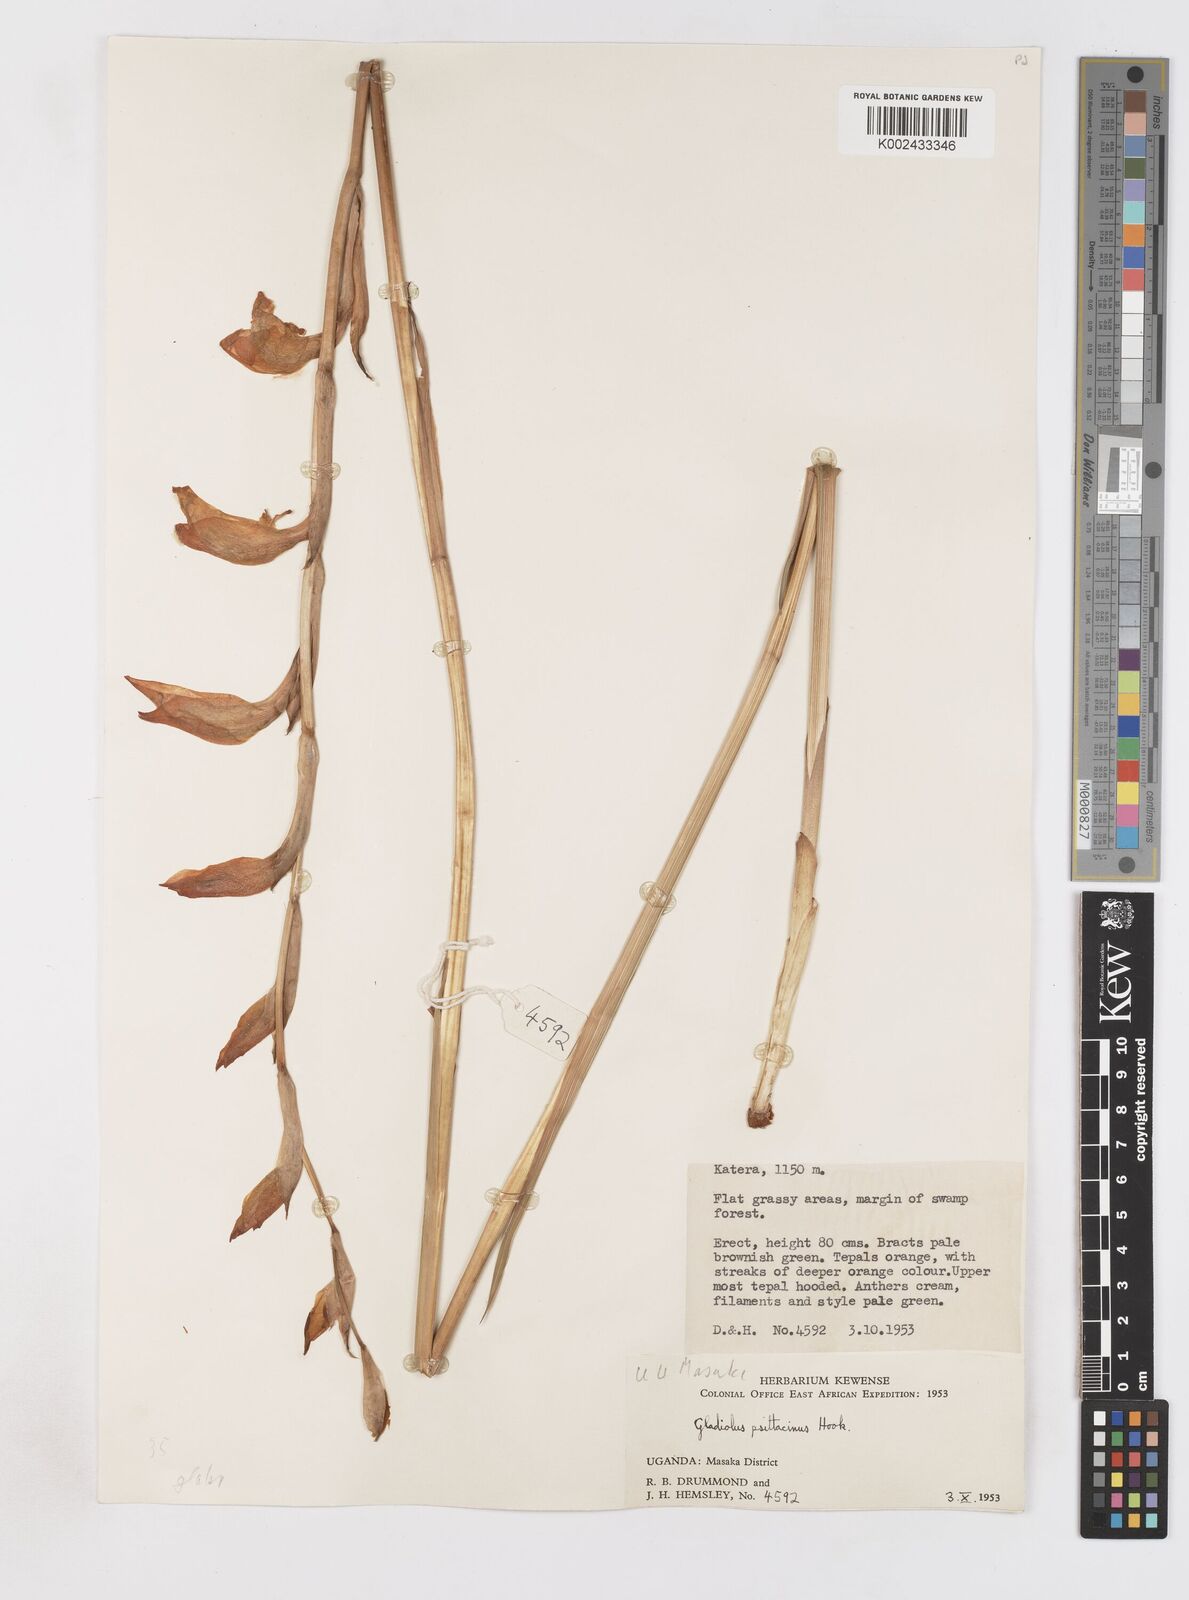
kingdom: Plantae
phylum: Tracheophyta
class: Liliopsida
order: Asparagales
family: Iridaceae
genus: Gladiolus
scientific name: Gladiolus dalenii
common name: Cornflag
